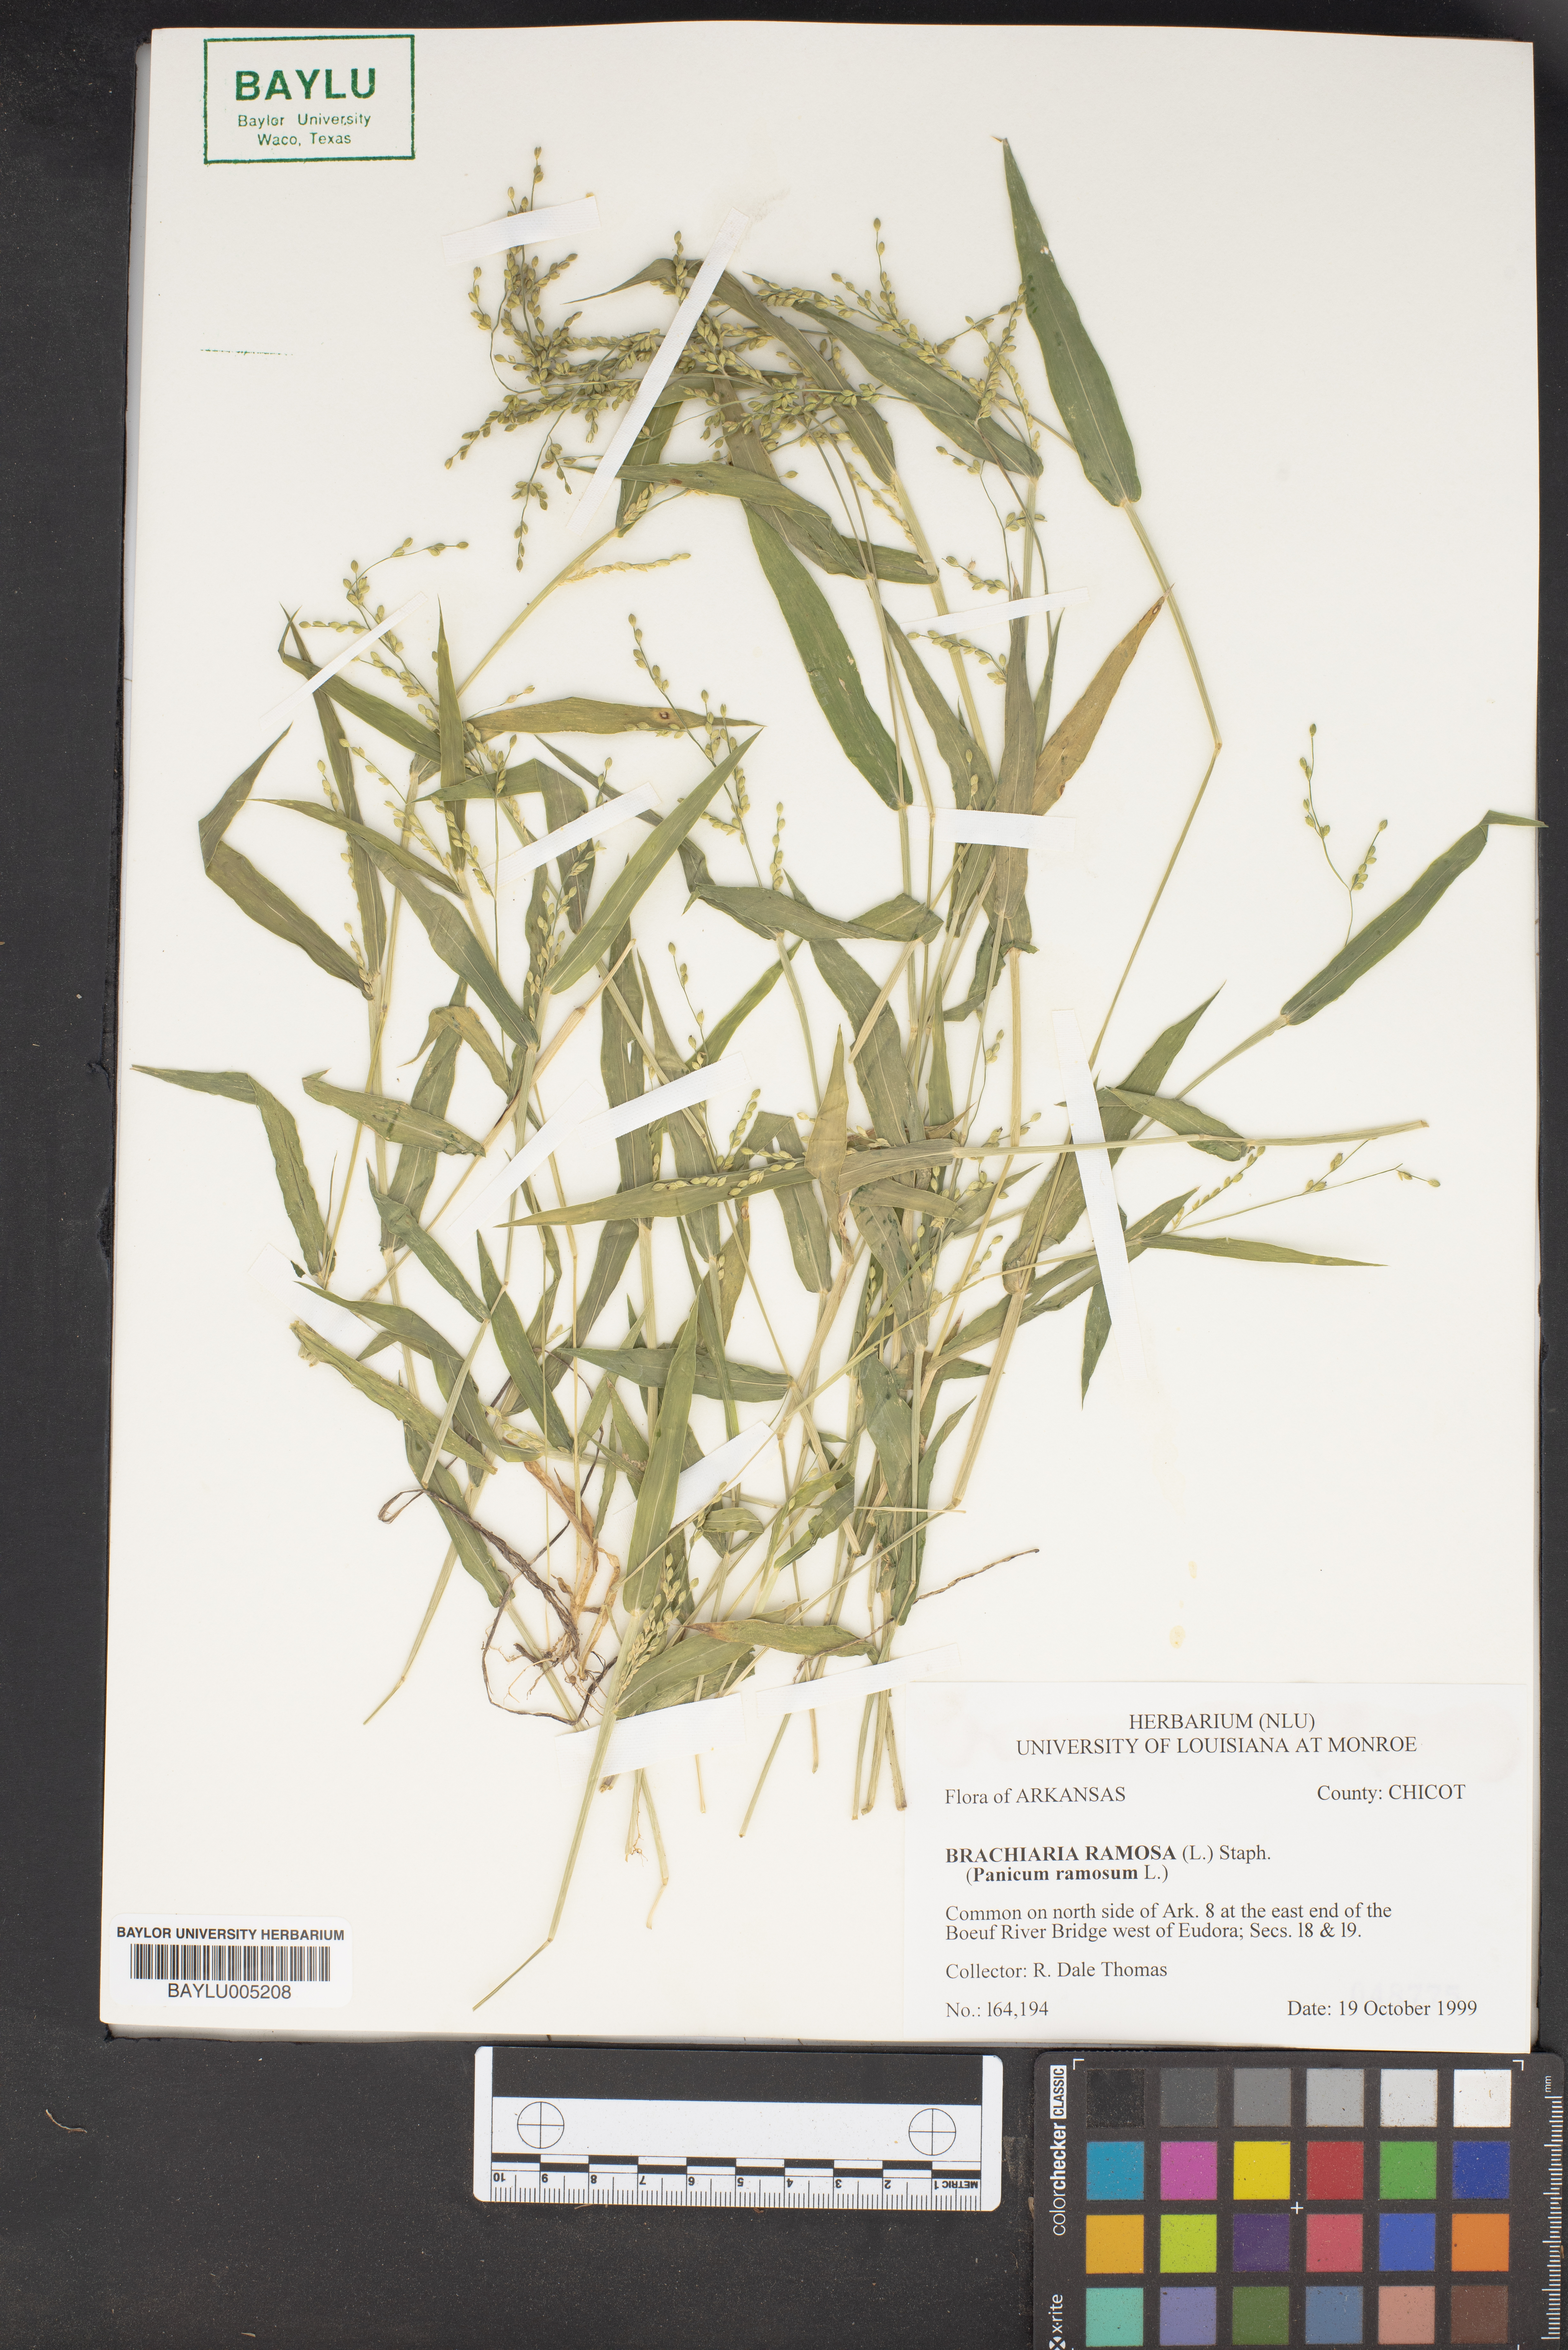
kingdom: Plantae
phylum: Tracheophyta
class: Liliopsida
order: Poales
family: Poaceae
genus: Urochloa
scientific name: Urochloa ramosa
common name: Browntop millet
